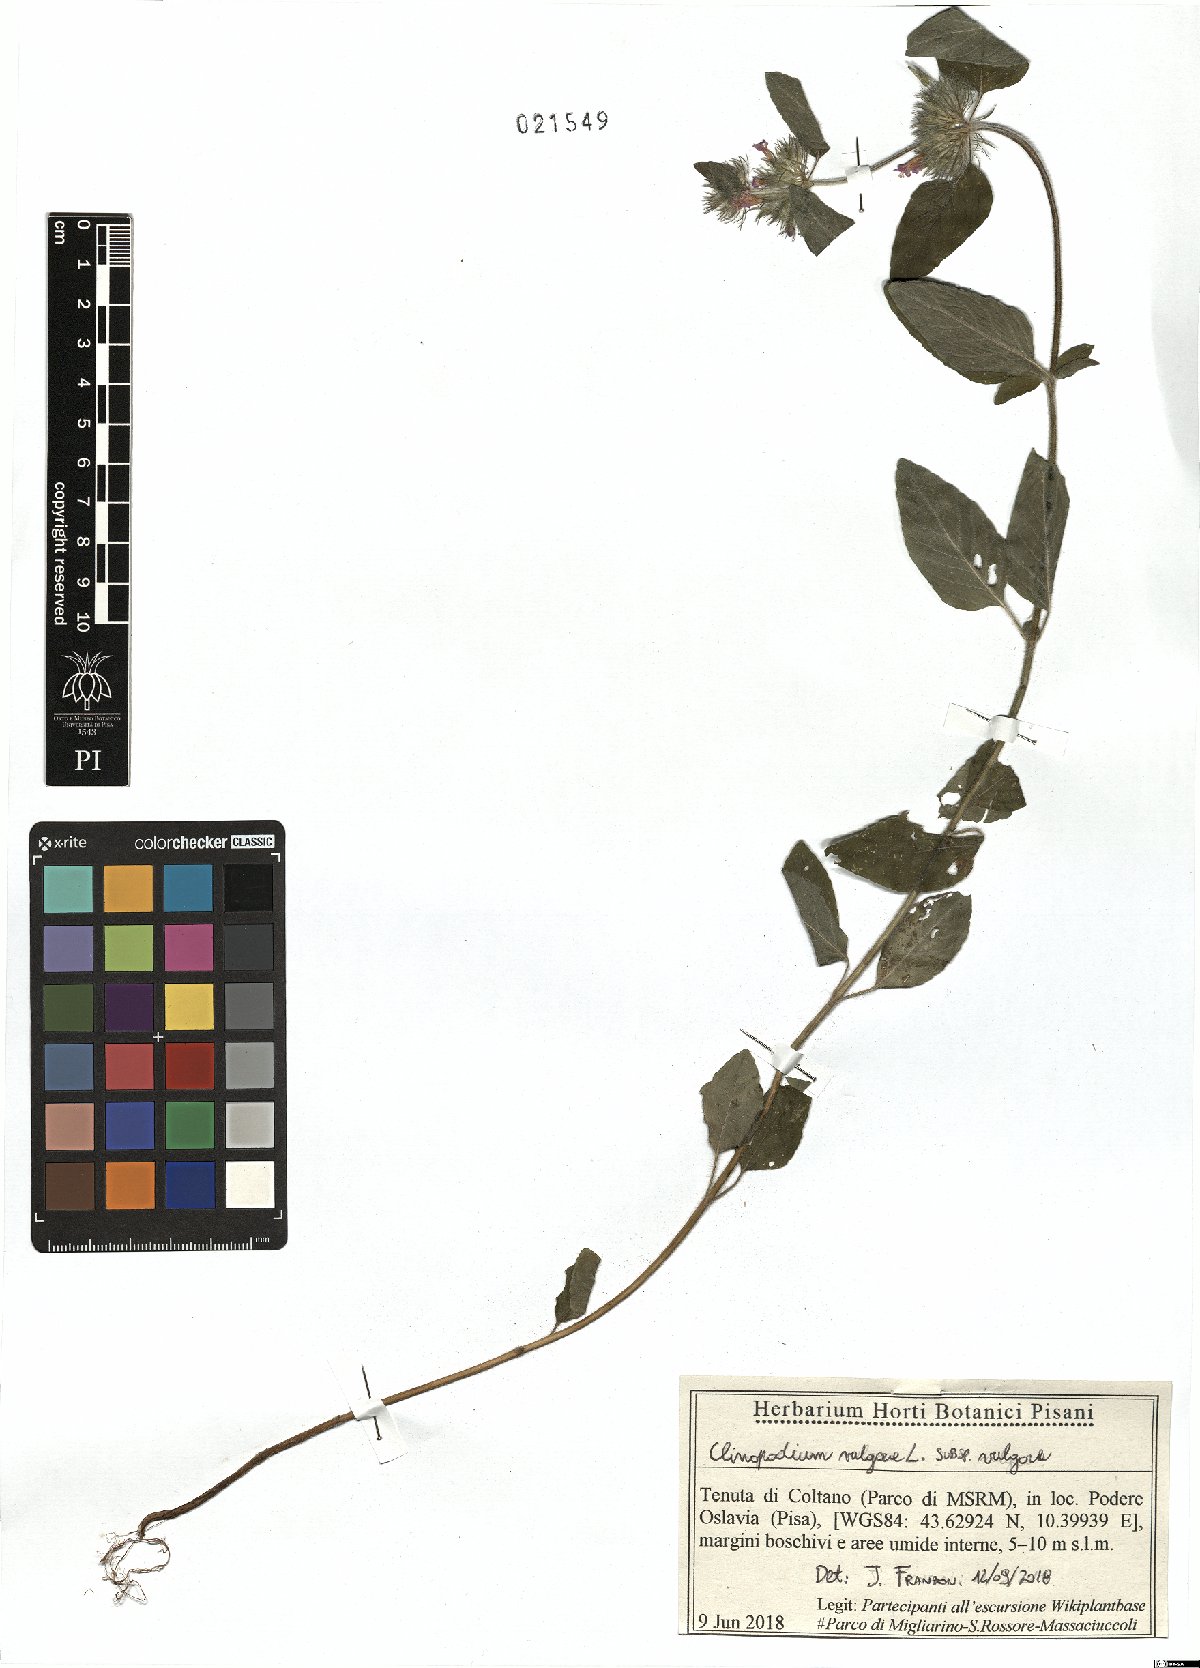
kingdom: Plantae
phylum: Tracheophyta
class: Magnoliopsida
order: Lamiales
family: Lamiaceae
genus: Clinopodium
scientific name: Clinopodium vulgare
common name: Wild basil
